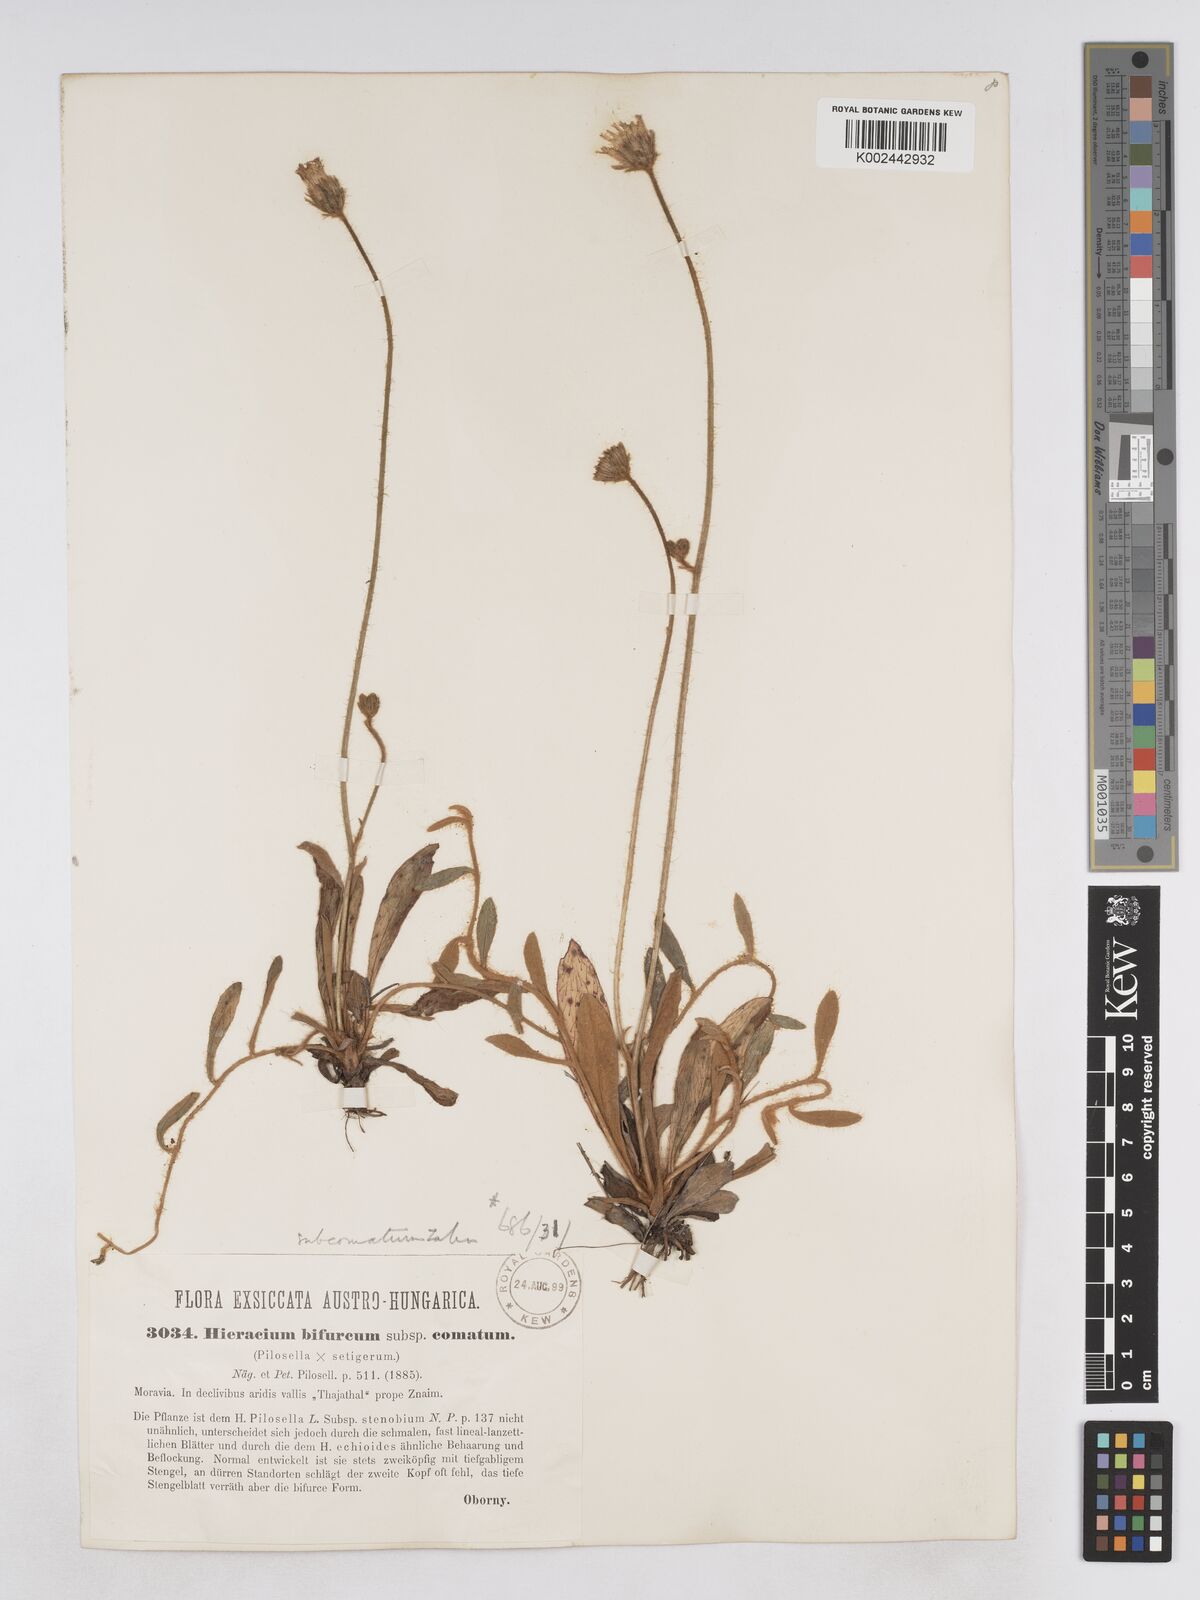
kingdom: Plantae
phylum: Tracheophyta
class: Magnoliopsida
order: Asterales
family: Asteraceae
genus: Pilosella
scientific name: Pilosella bifurca
